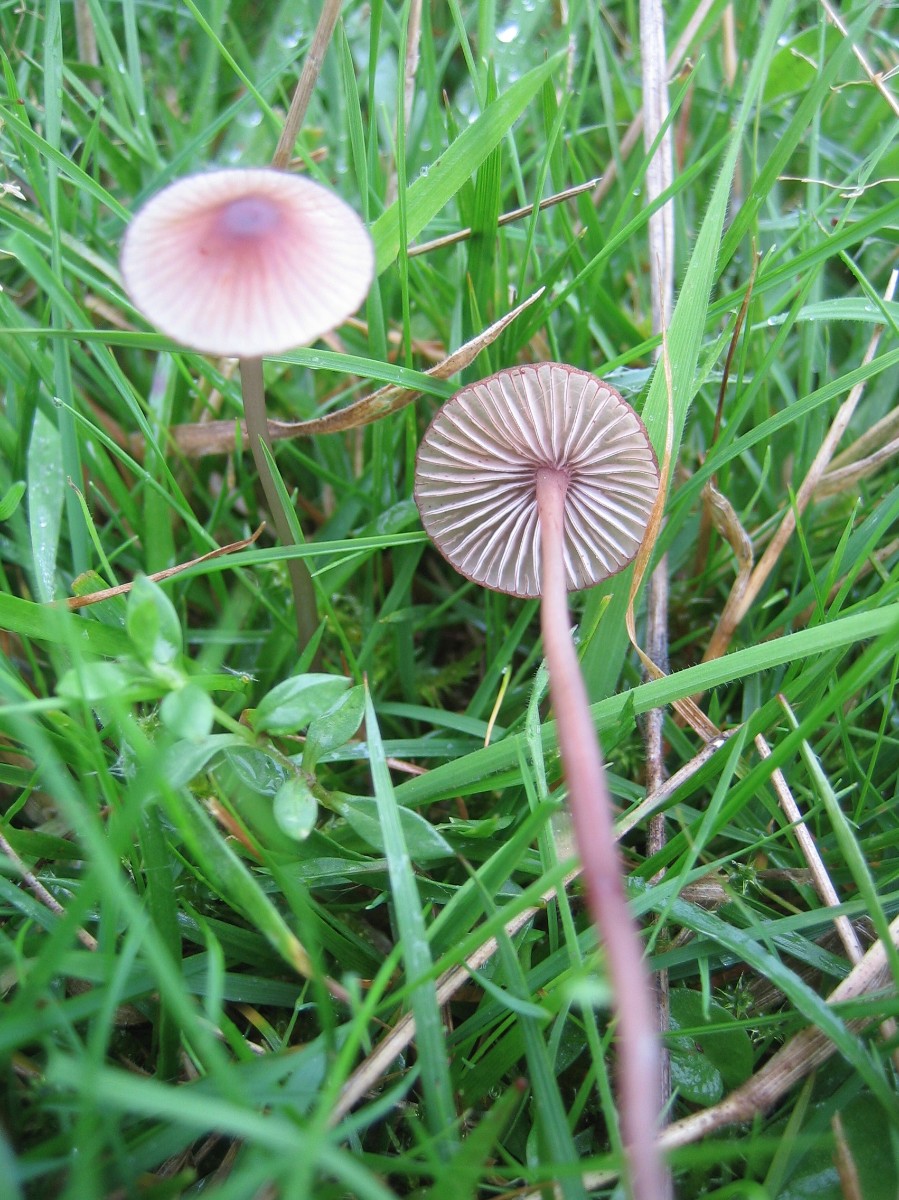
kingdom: Fungi
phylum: Basidiomycota
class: Agaricomycetes
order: Agaricales
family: Mycenaceae
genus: Mycena
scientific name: Mycena sanguinolenta
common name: rødmælket huesvamp
